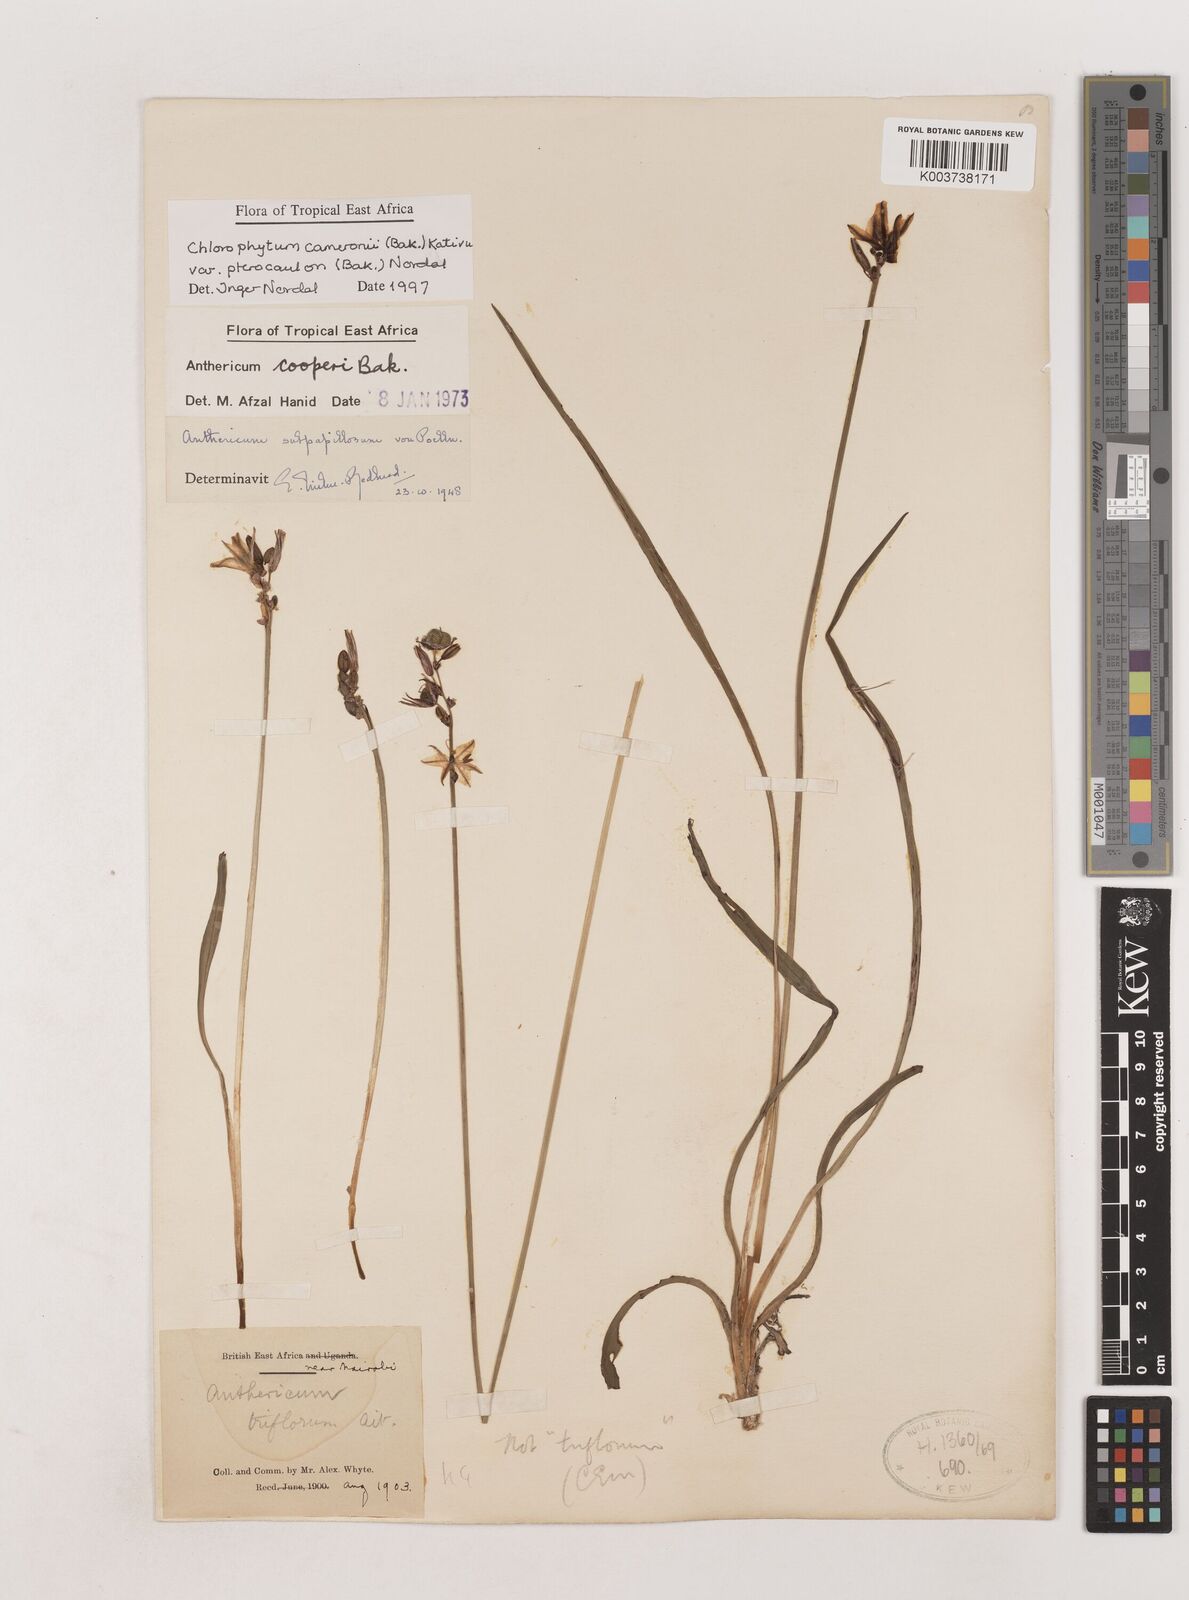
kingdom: Plantae
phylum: Tracheophyta
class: Liliopsida
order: Asparagales
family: Asparagaceae
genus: Chlorophytum
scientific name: Chlorophytum cameronii
